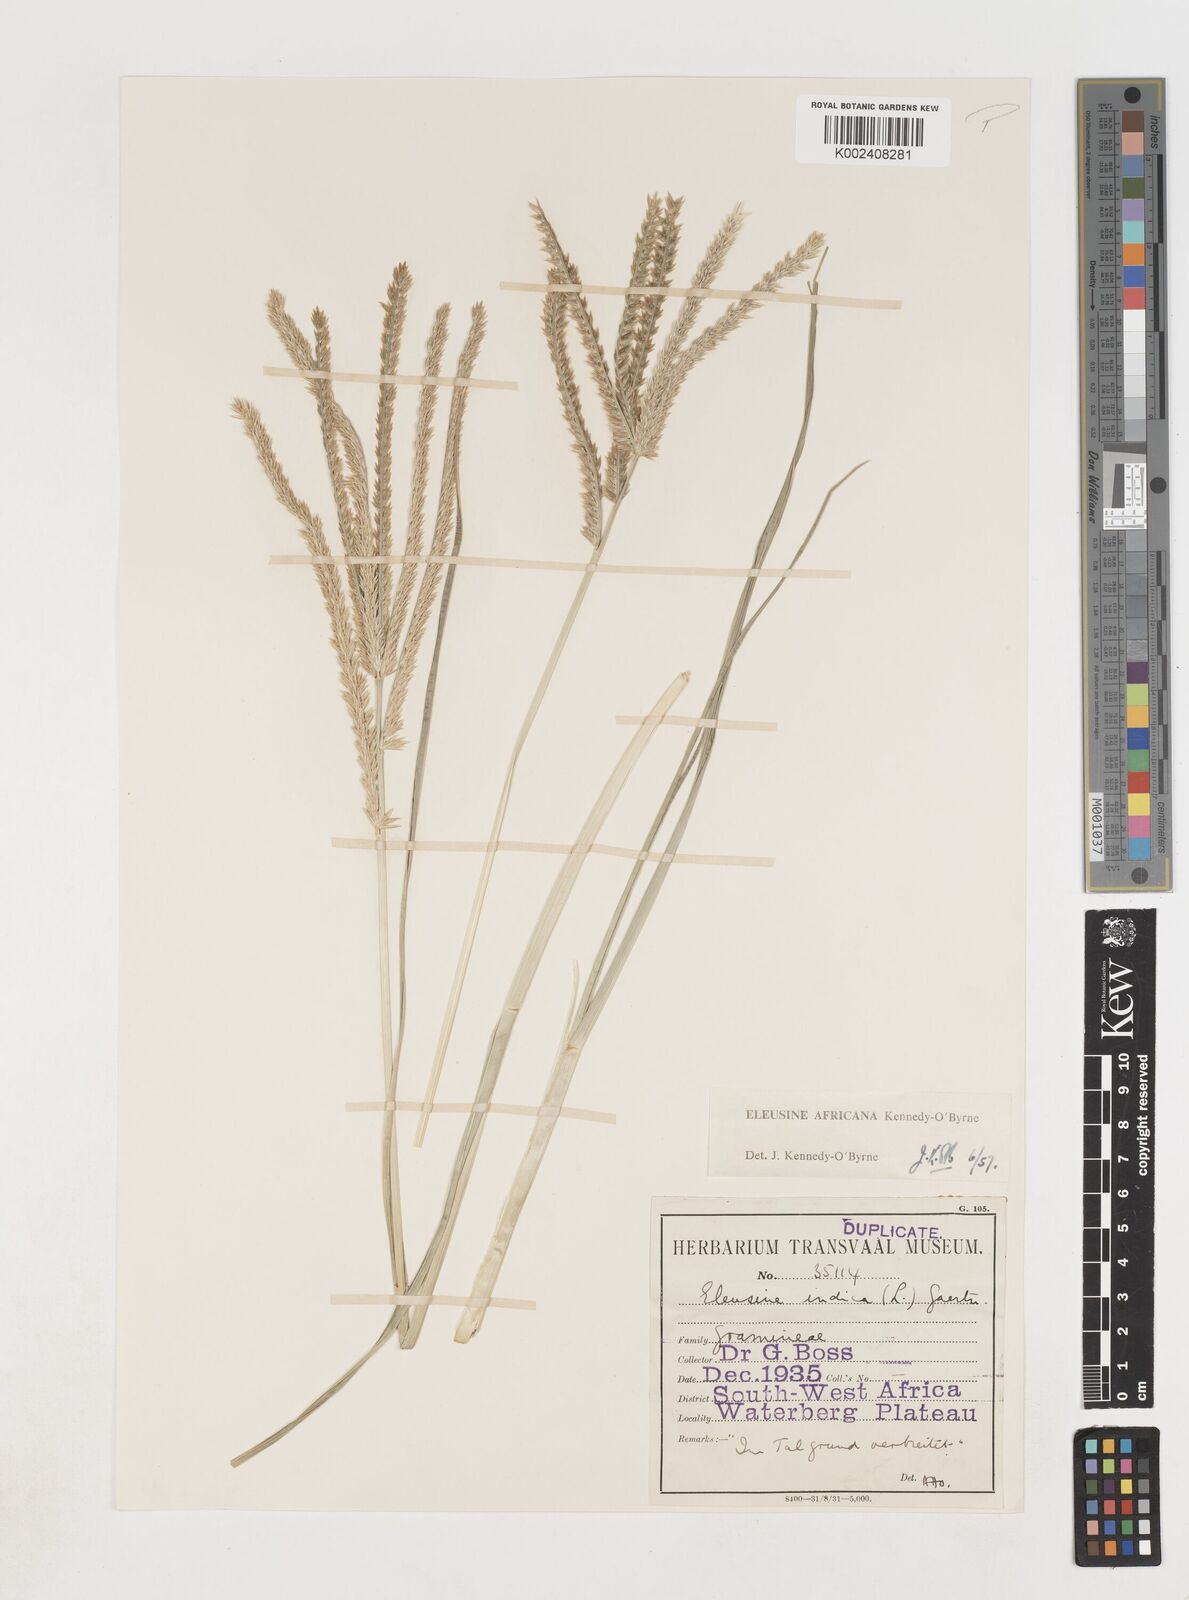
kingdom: Plantae
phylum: Tracheophyta
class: Liliopsida
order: Poales
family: Poaceae
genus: Eleusine
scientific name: Eleusine africana
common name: Wild african finger millet
